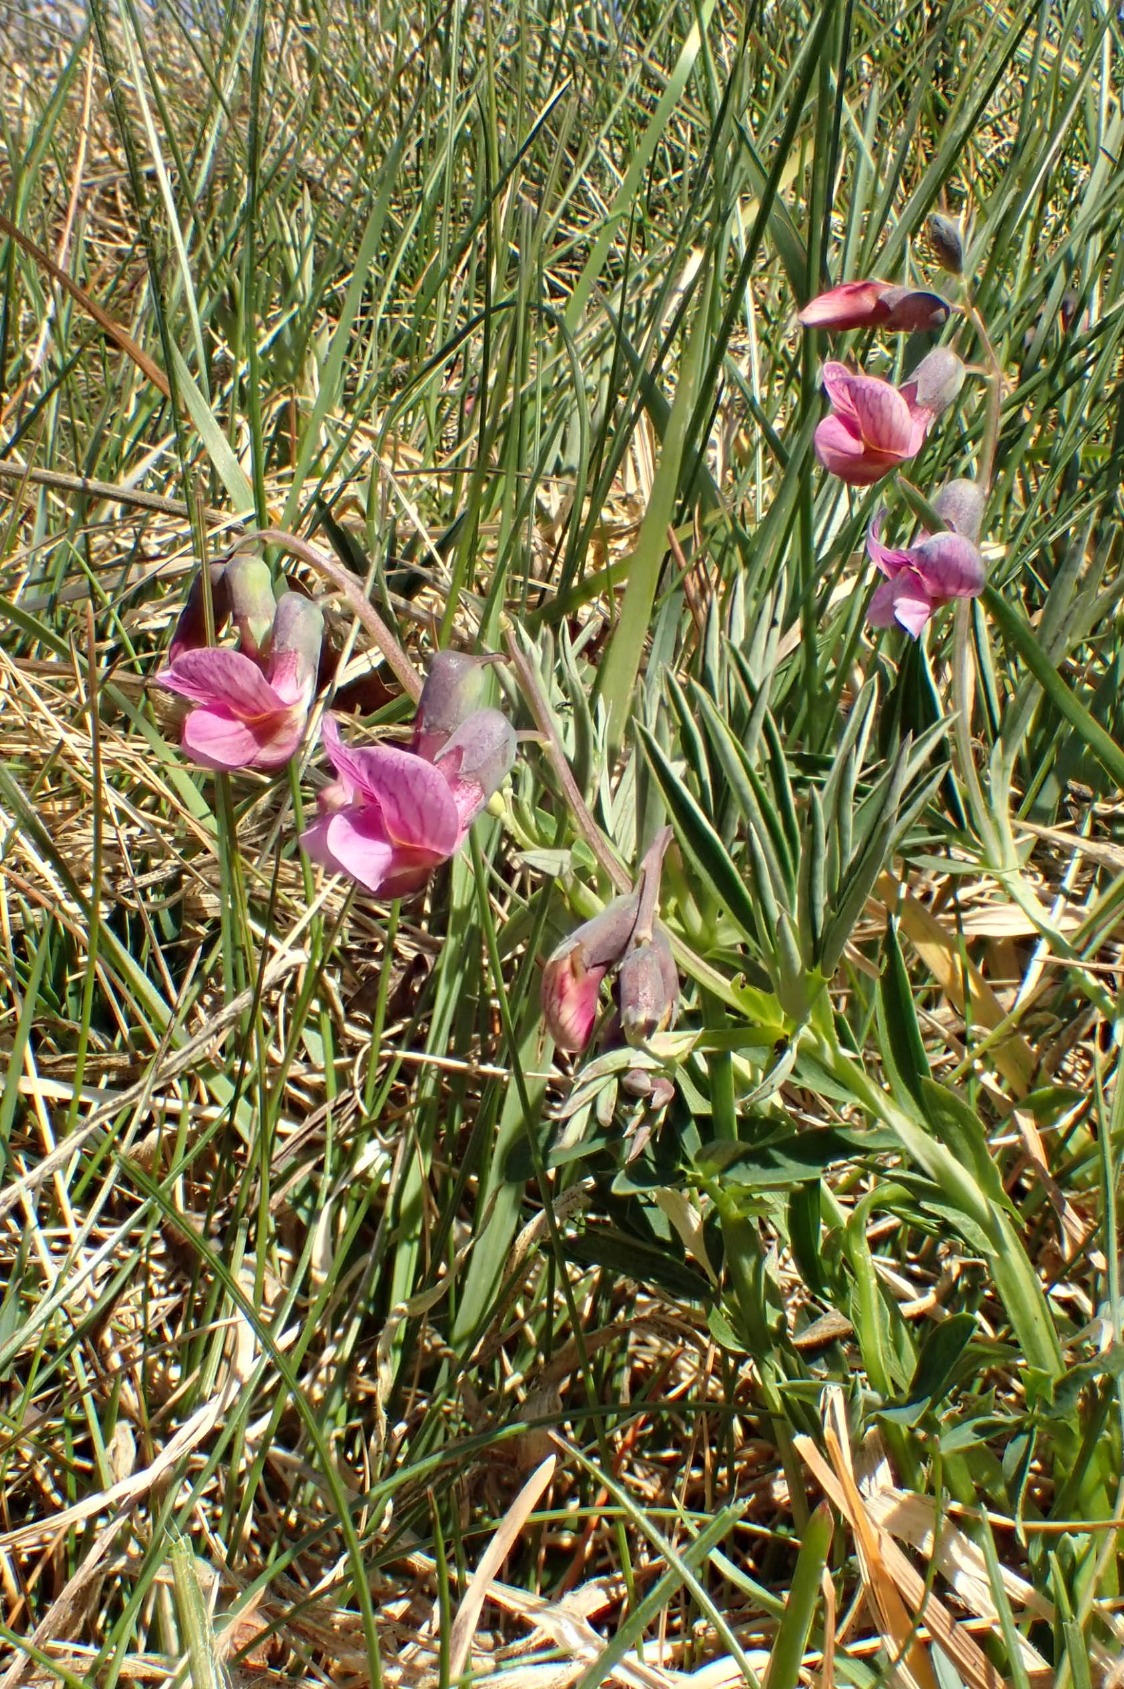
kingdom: Plantae
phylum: Tracheophyta
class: Magnoliopsida
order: Fabales
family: Fabaceae
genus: Lathyrus
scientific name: Lathyrus linifolius
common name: Krat-fladbælg
